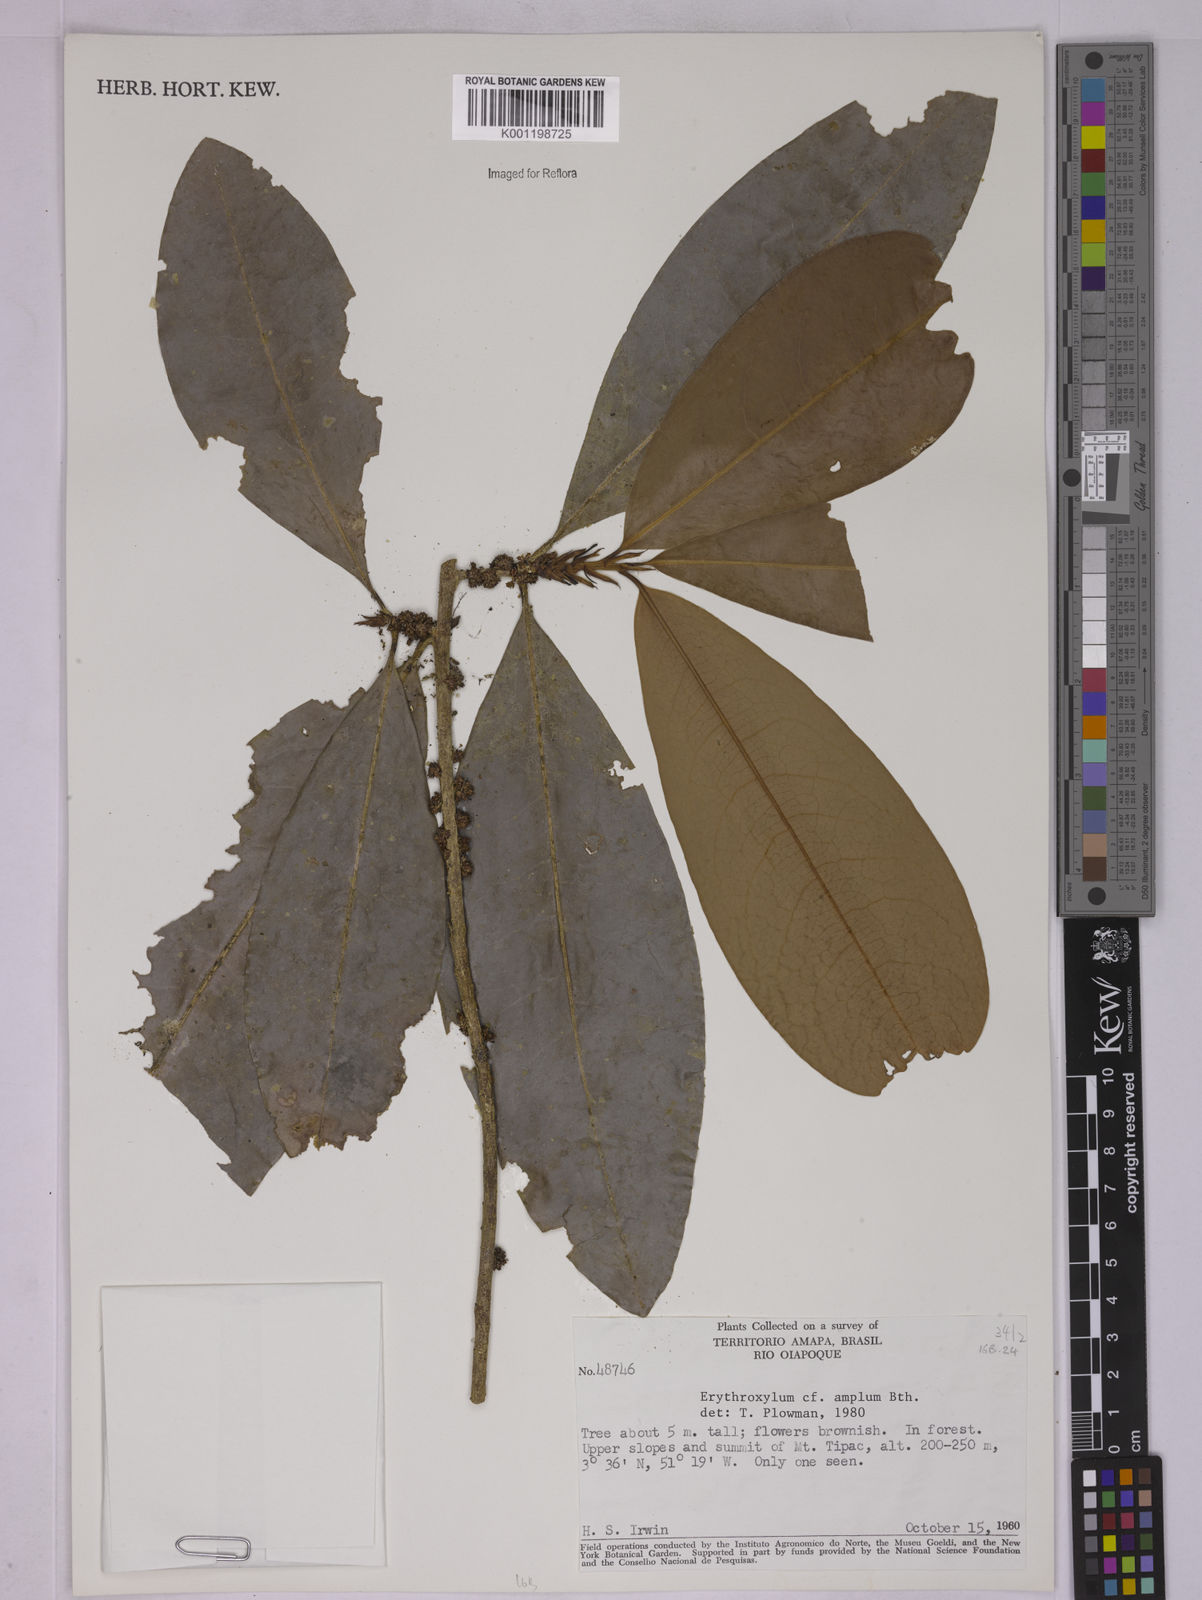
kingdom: Plantae
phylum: Tracheophyta
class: Magnoliopsida
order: Malpighiales
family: Erythroxylaceae
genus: Erythroxylum
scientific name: Erythroxylum amplum
